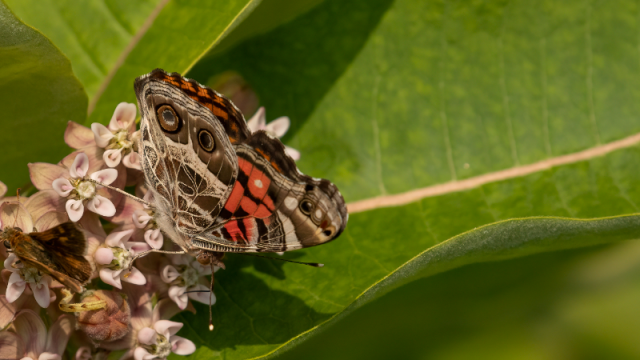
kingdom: Animalia
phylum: Arthropoda
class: Insecta
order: Lepidoptera
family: Nymphalidae
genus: Vanessa
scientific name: Vanessa virginiensis
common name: American Lady
